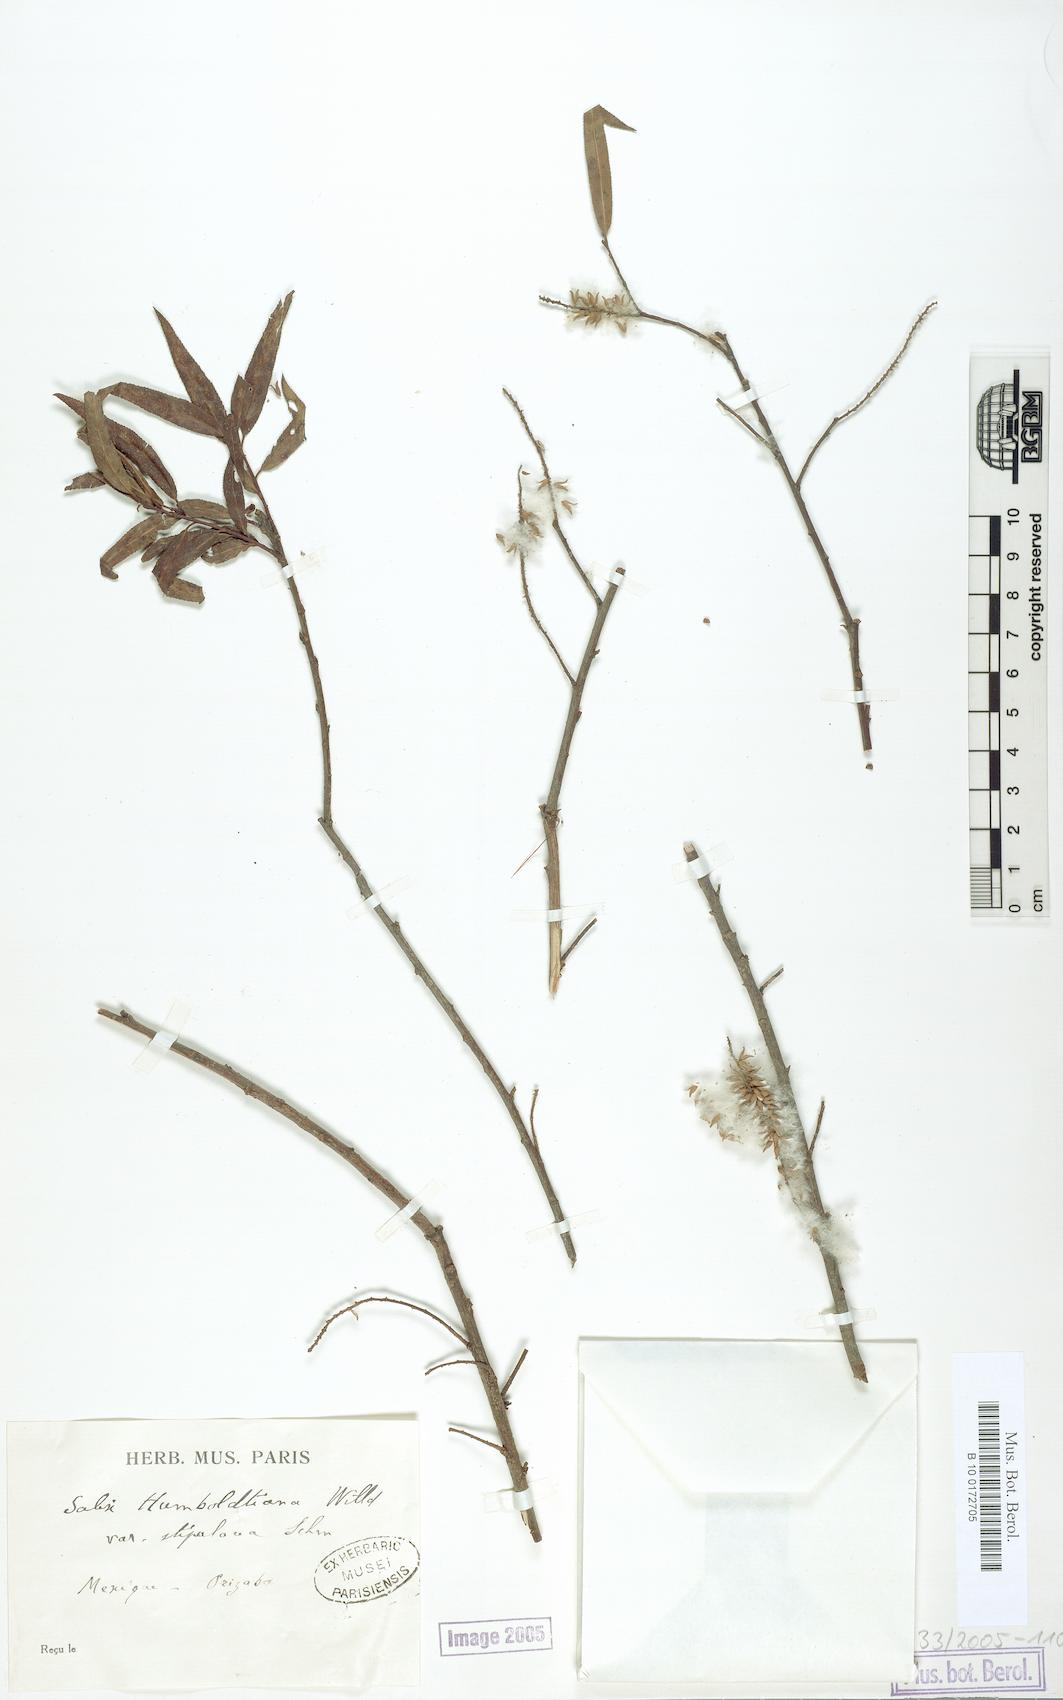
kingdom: Plantae
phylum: Tracheophyta
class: Magnoliopsida
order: Malpighiales
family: Salicaceae
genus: Salix
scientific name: Salix humboldtiana
